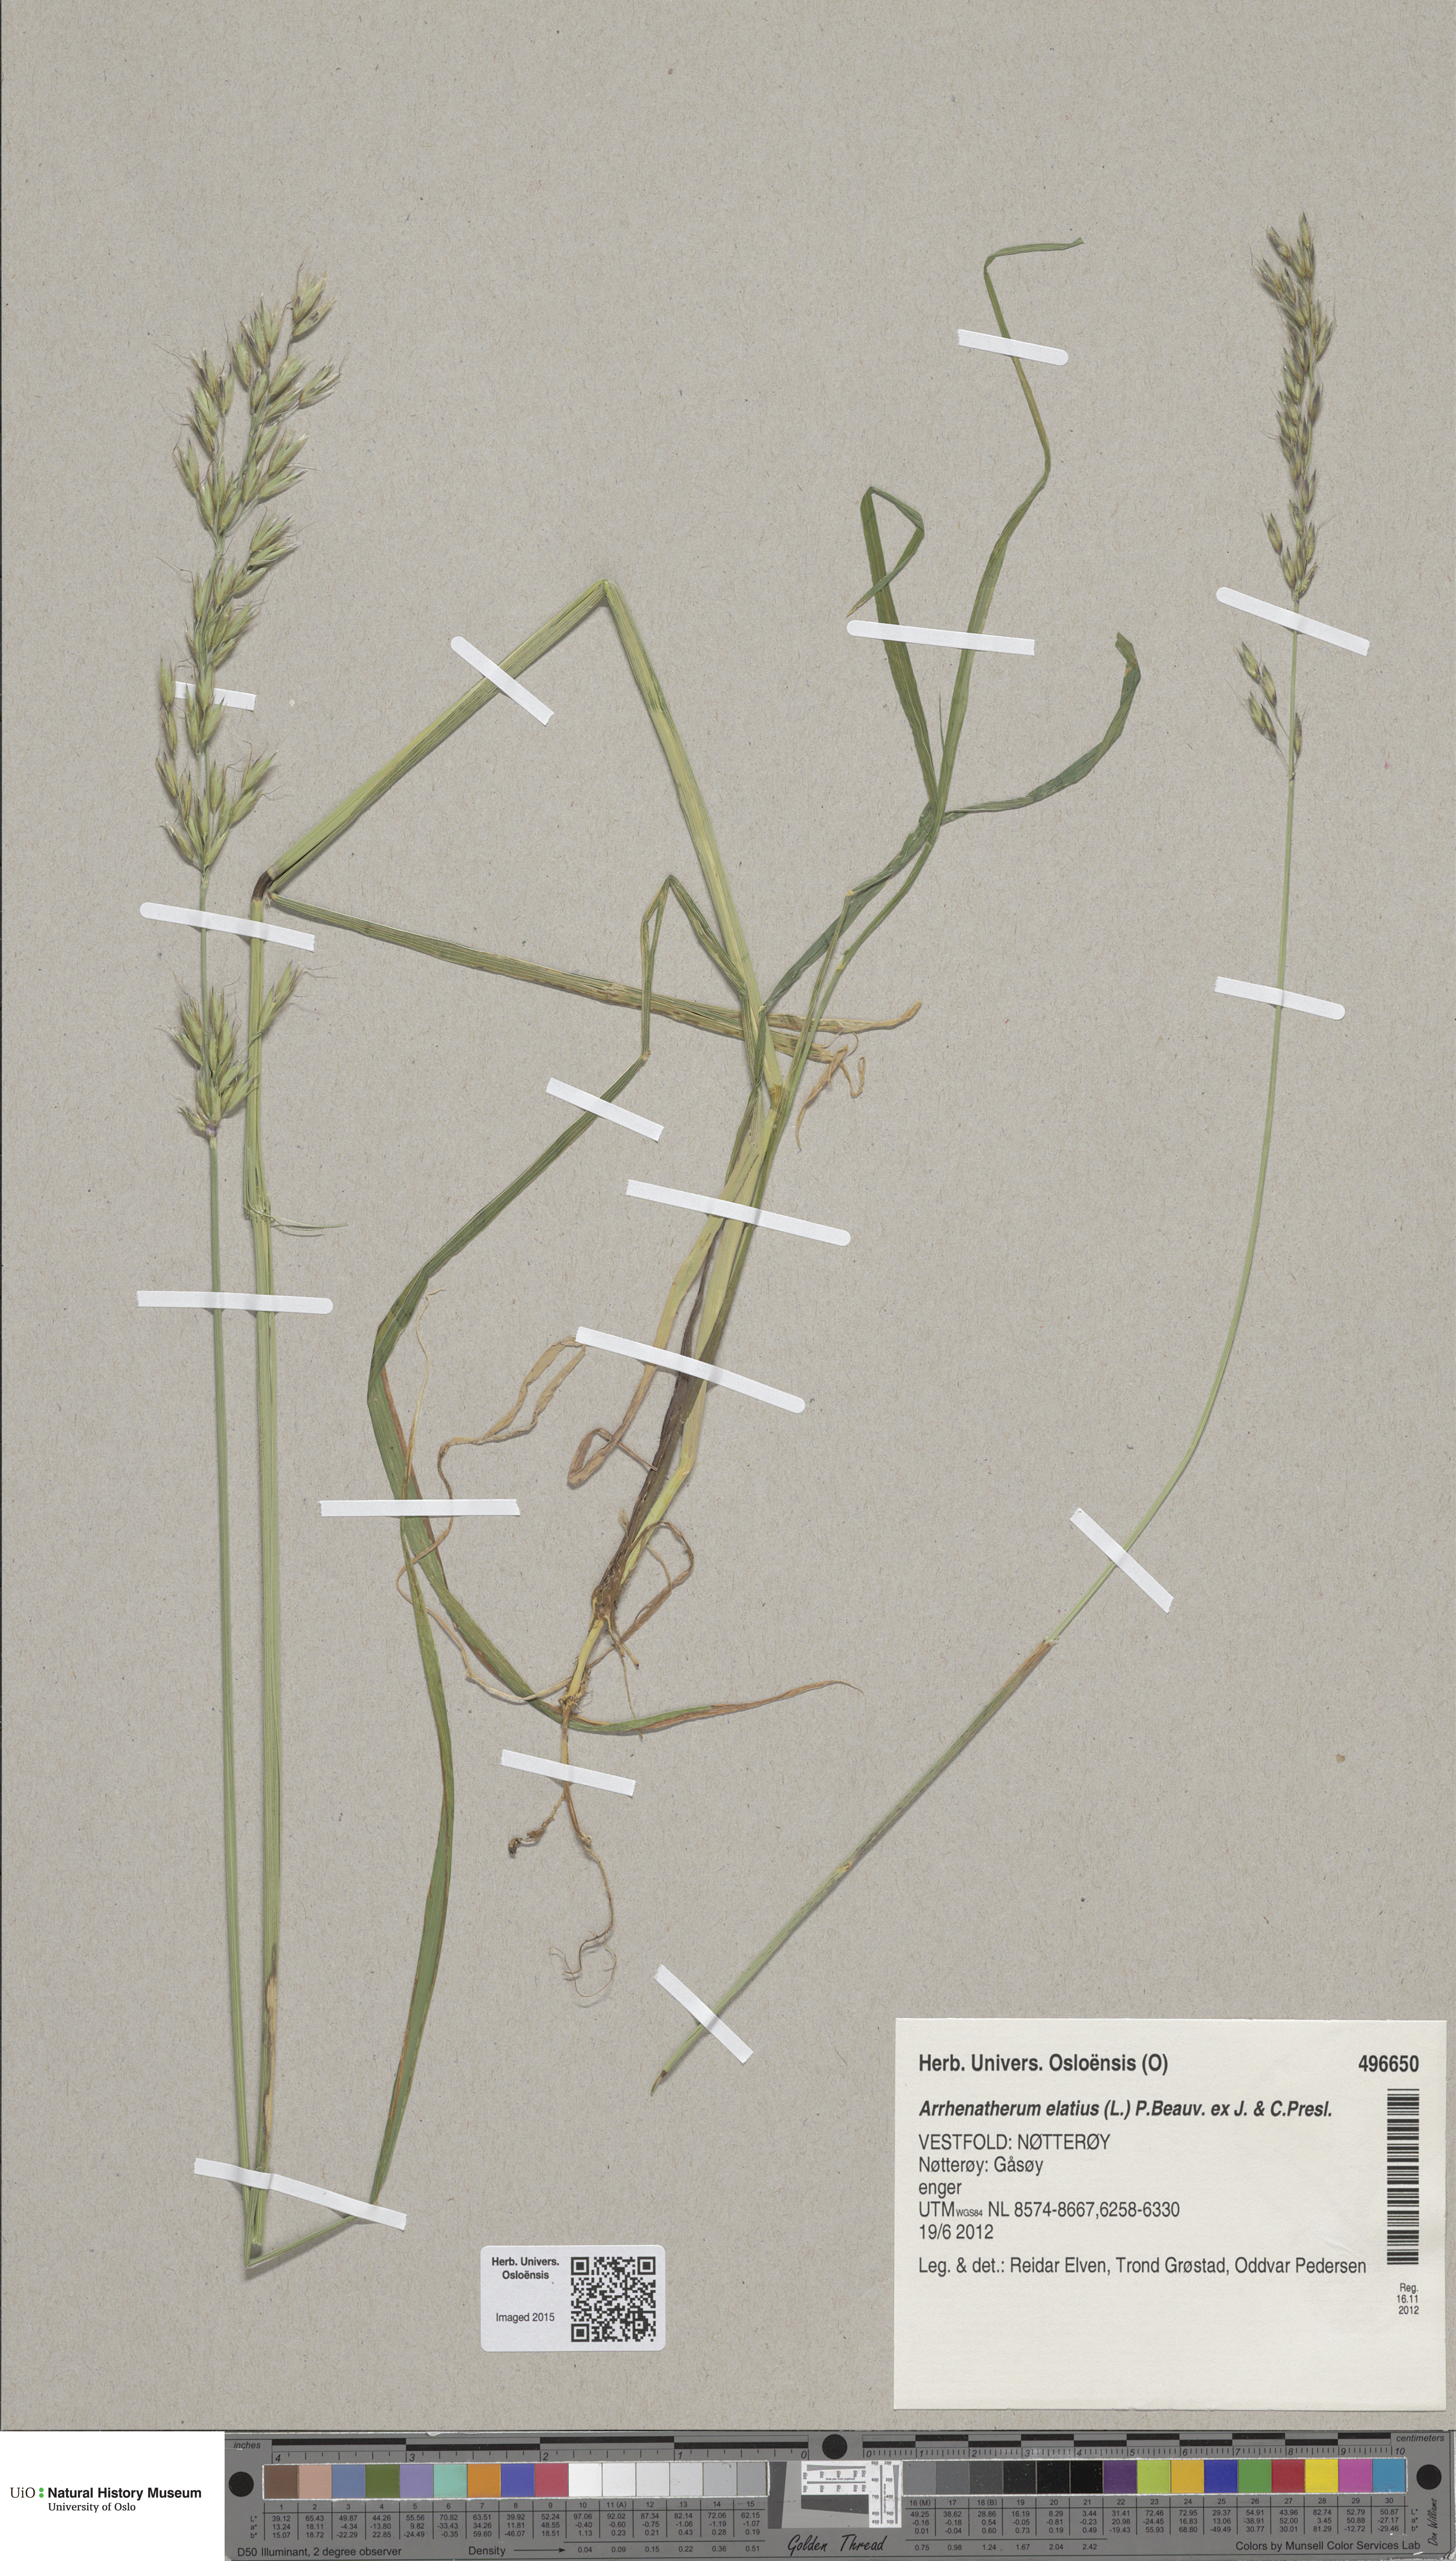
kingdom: Plantae
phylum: Tracheophyta
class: Liliopsida
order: Poales
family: Poaceae
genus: Arrhenatherum
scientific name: Arrhenatherum elatius
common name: Tall oatgrass
